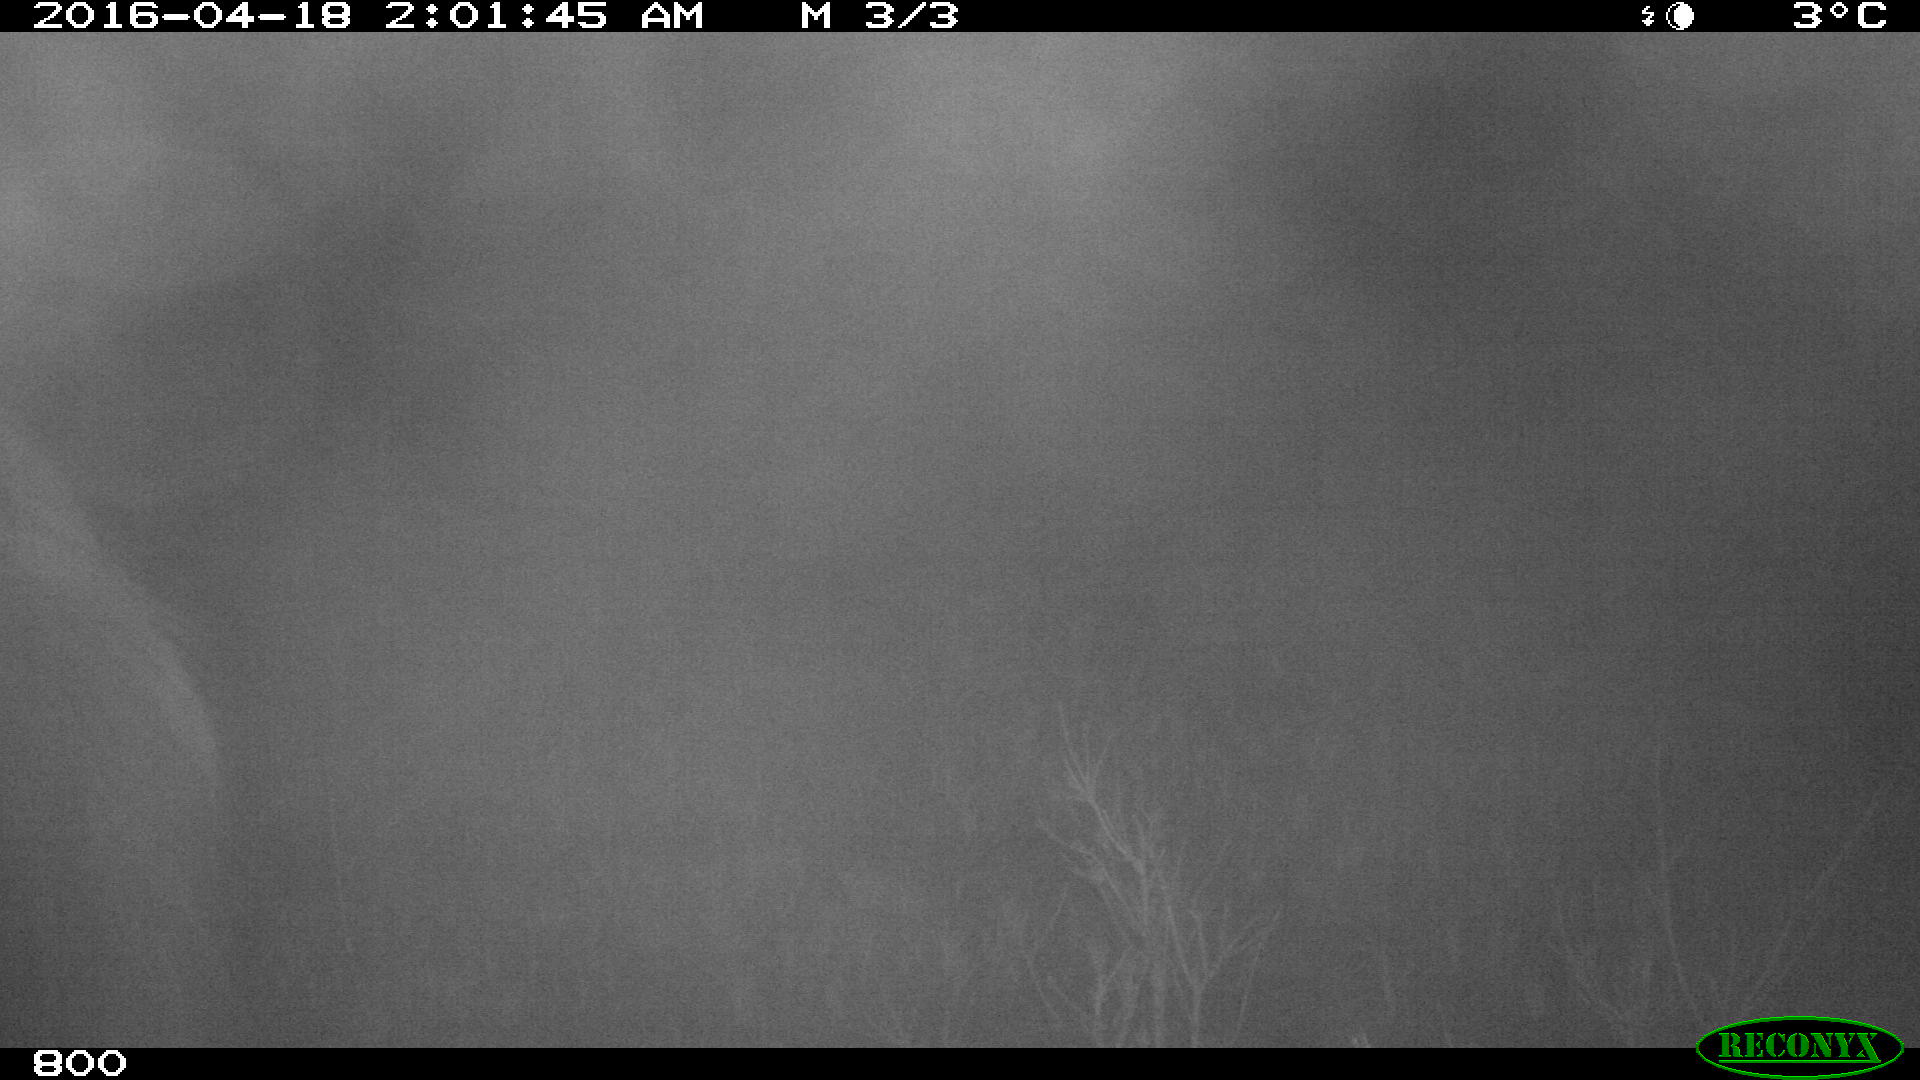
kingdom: Animalia
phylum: Chordata
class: Mammalia
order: Perissodactyla
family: Equidae
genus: Equus
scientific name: Equus caballus
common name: Horse
